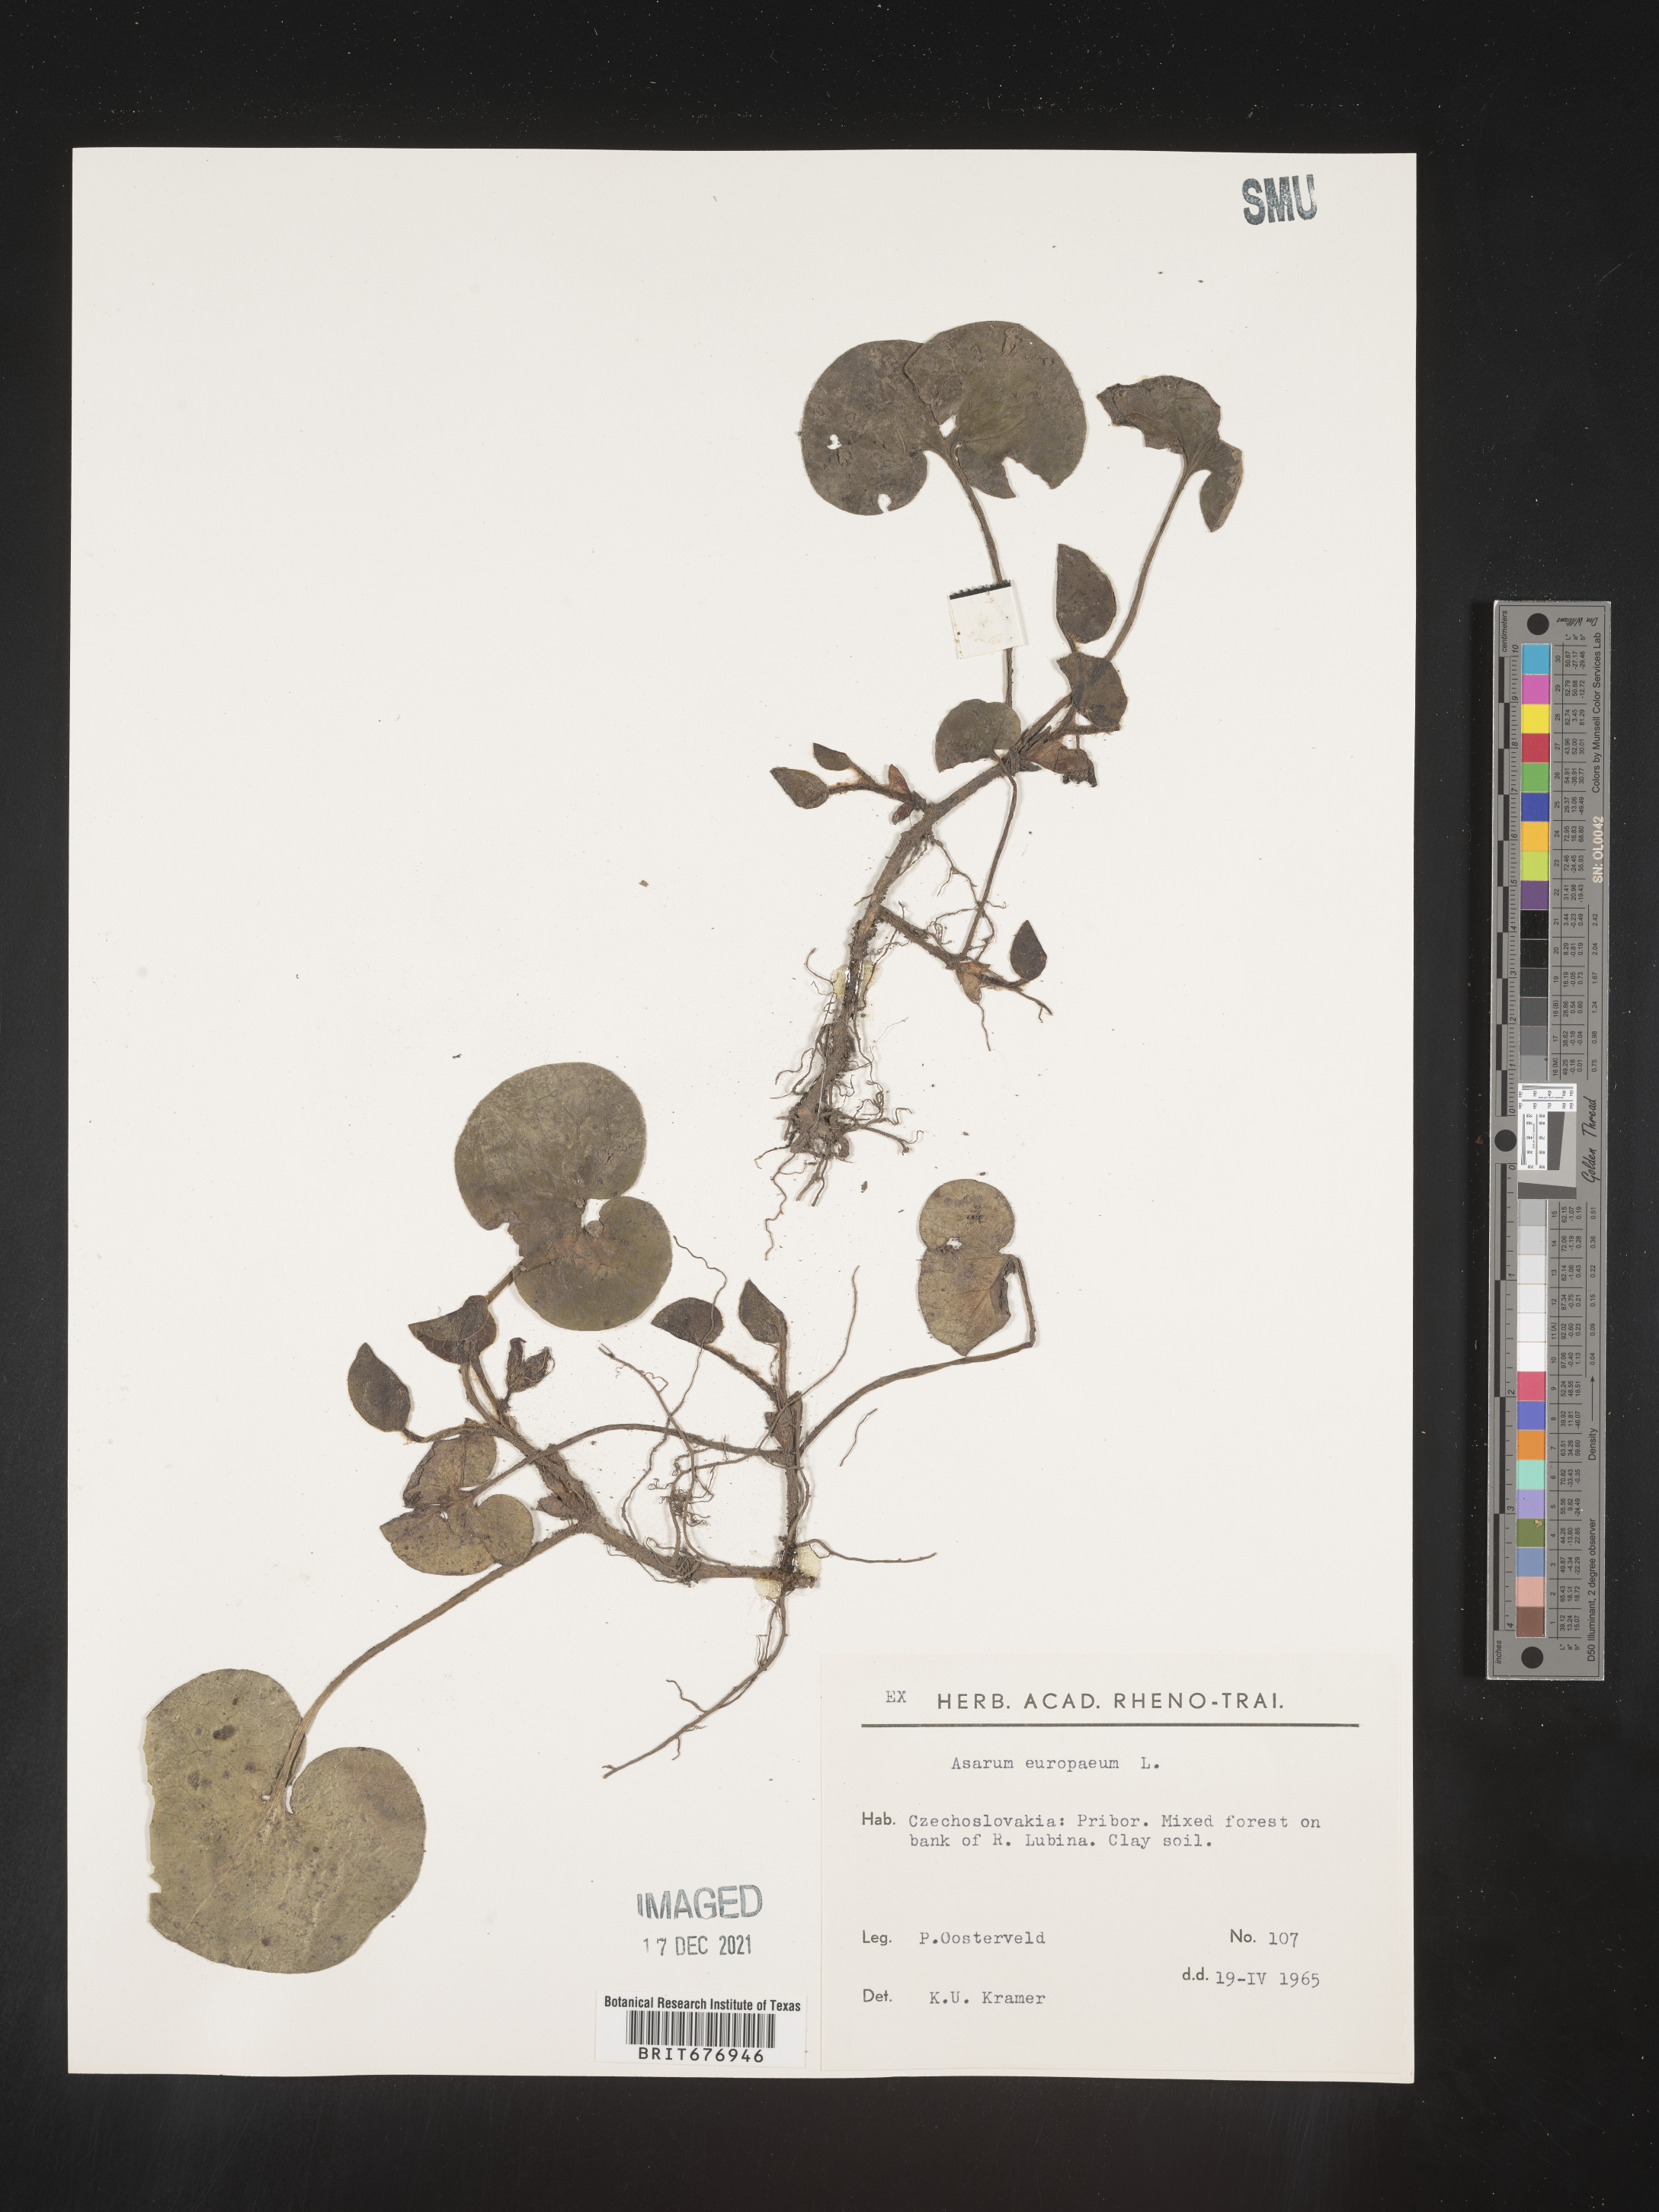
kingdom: Plantae
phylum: Tracheophyta
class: Magnoliopsida
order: Piperales
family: Aristolochiaceae
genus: Asarum
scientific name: Asarum
